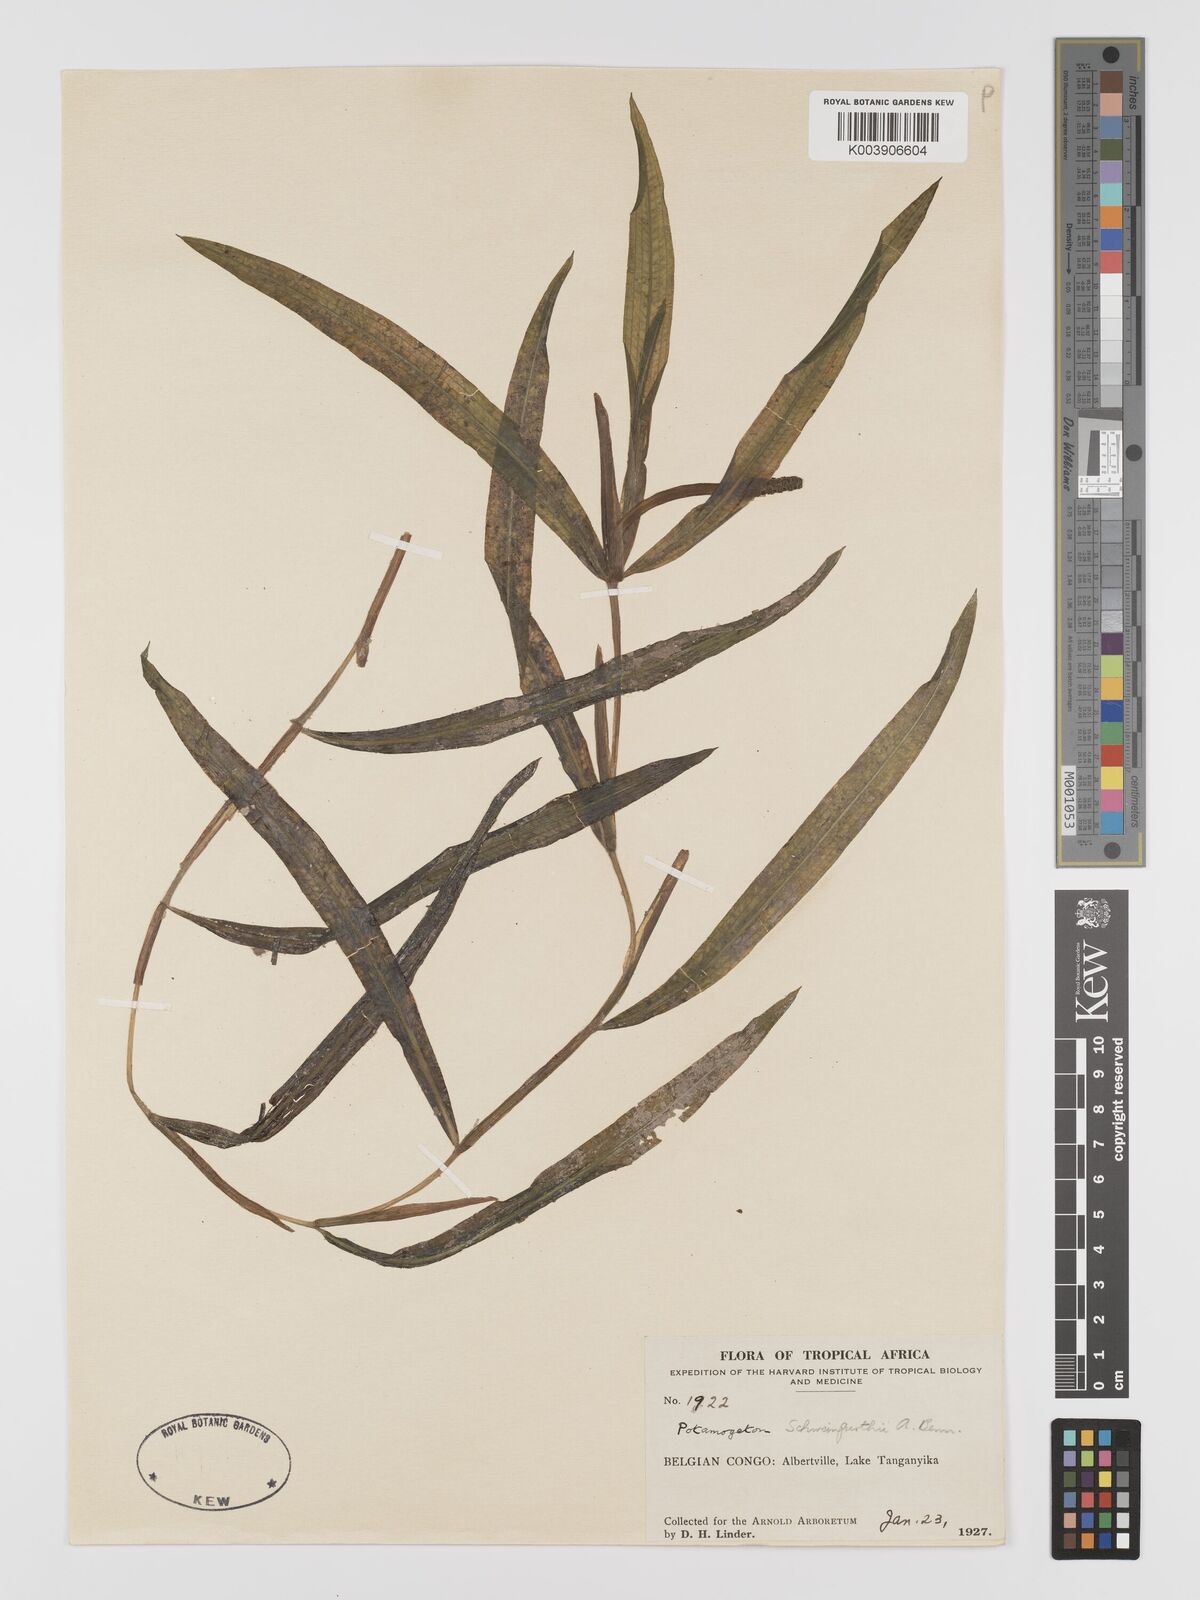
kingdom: Plantae
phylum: Tracheophyta
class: Liliopsida
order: Alismatales
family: Potamogetonaceae
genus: Potamogeton
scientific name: Potamogeton schweinfurthii
